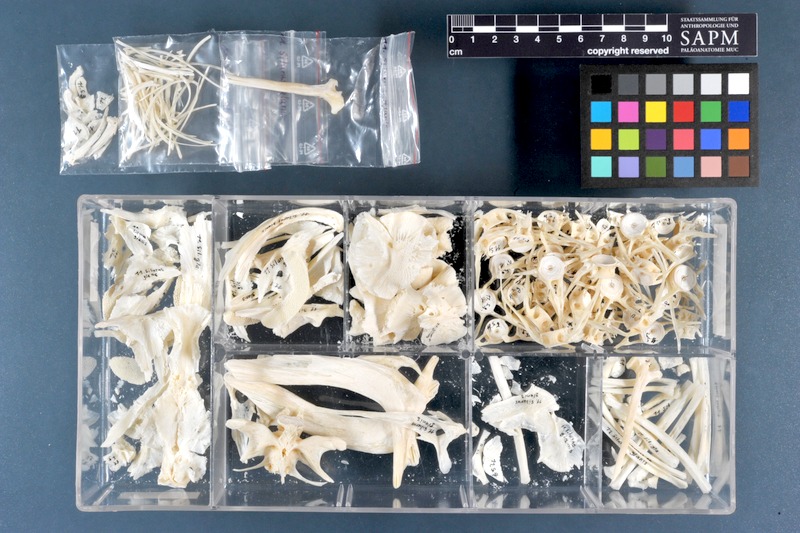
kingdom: Animalia
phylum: Chordata
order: Siluriformes
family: Siluridae
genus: Silurus
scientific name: Silurus glanis
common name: Wels
